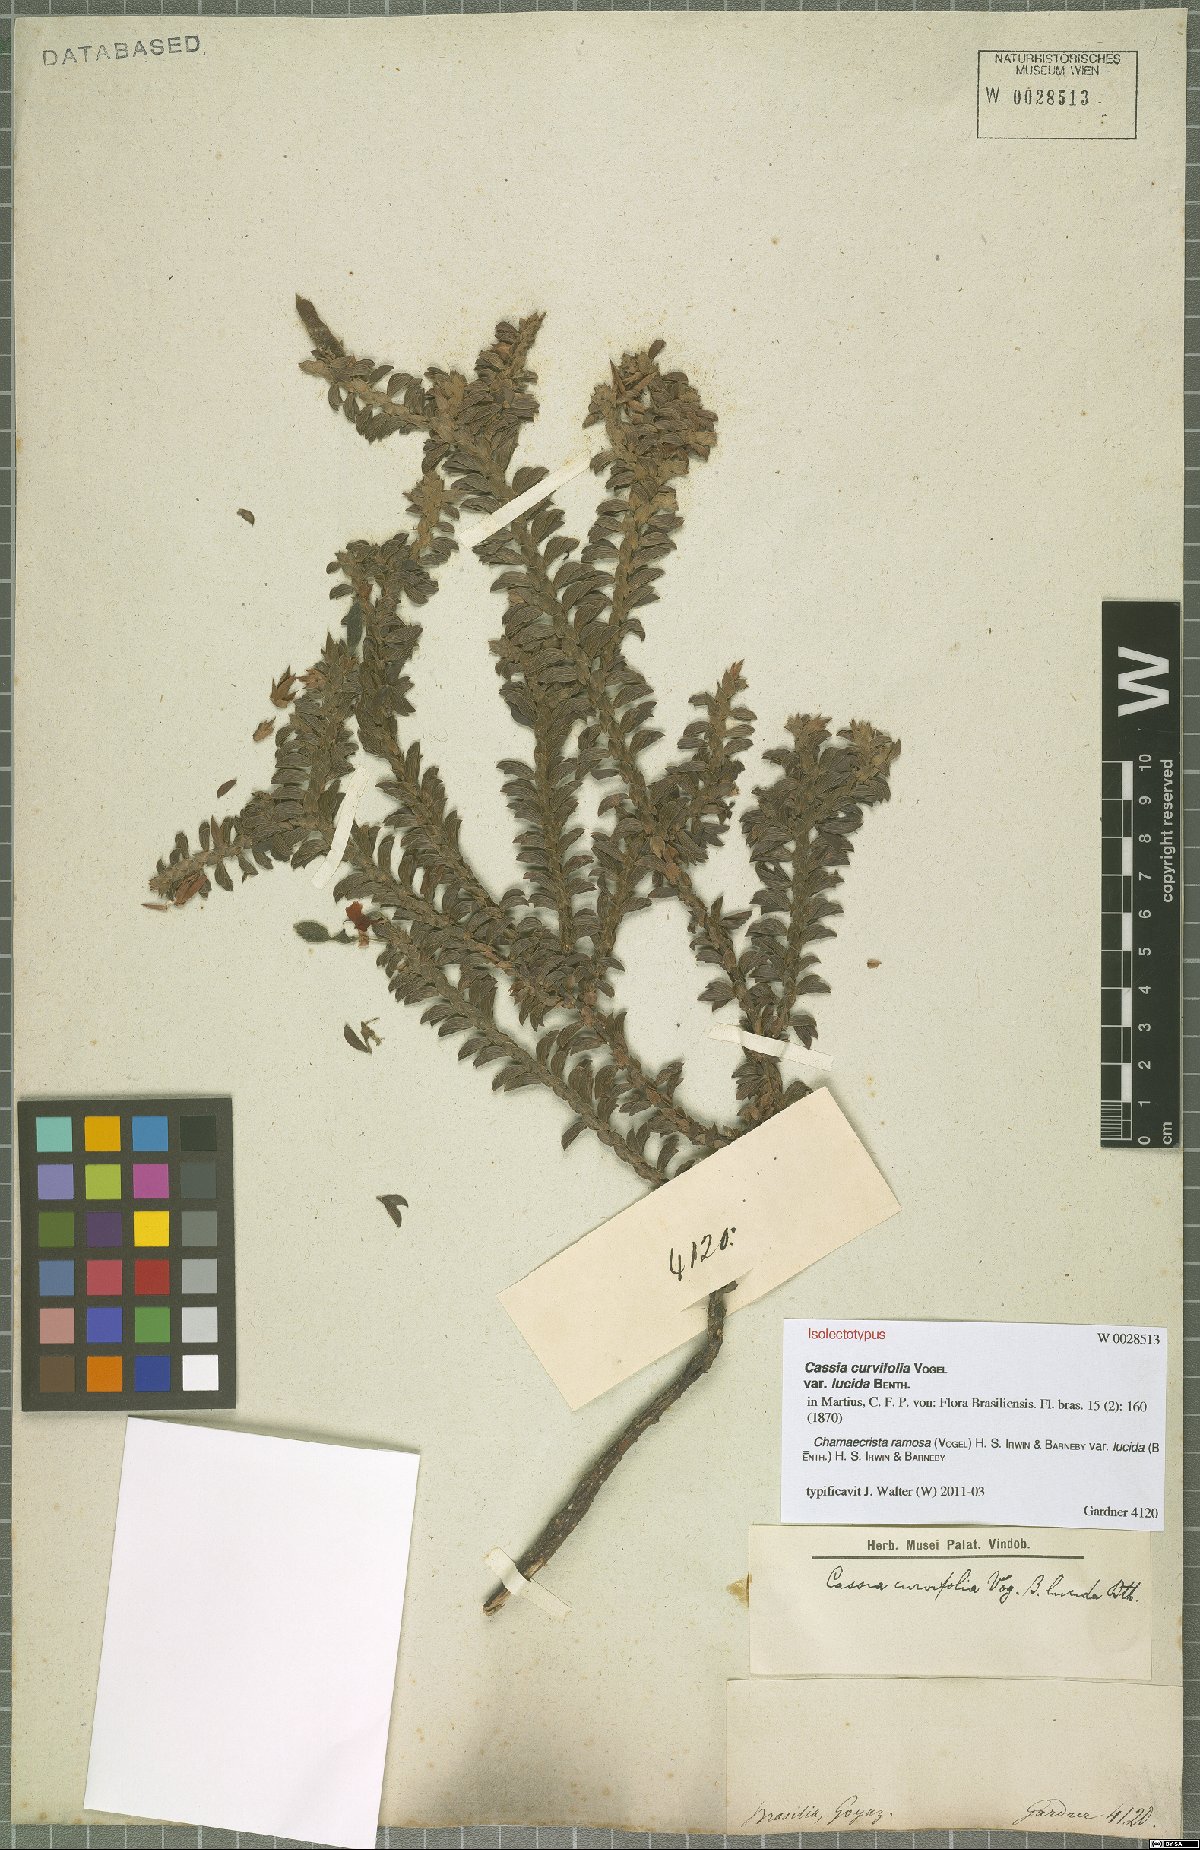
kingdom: Plantae
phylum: Tracheophyta
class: Magnoliopsida
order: Fabales
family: Fabaceae
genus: Chamaecrista
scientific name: Chamaecrista ramosa
